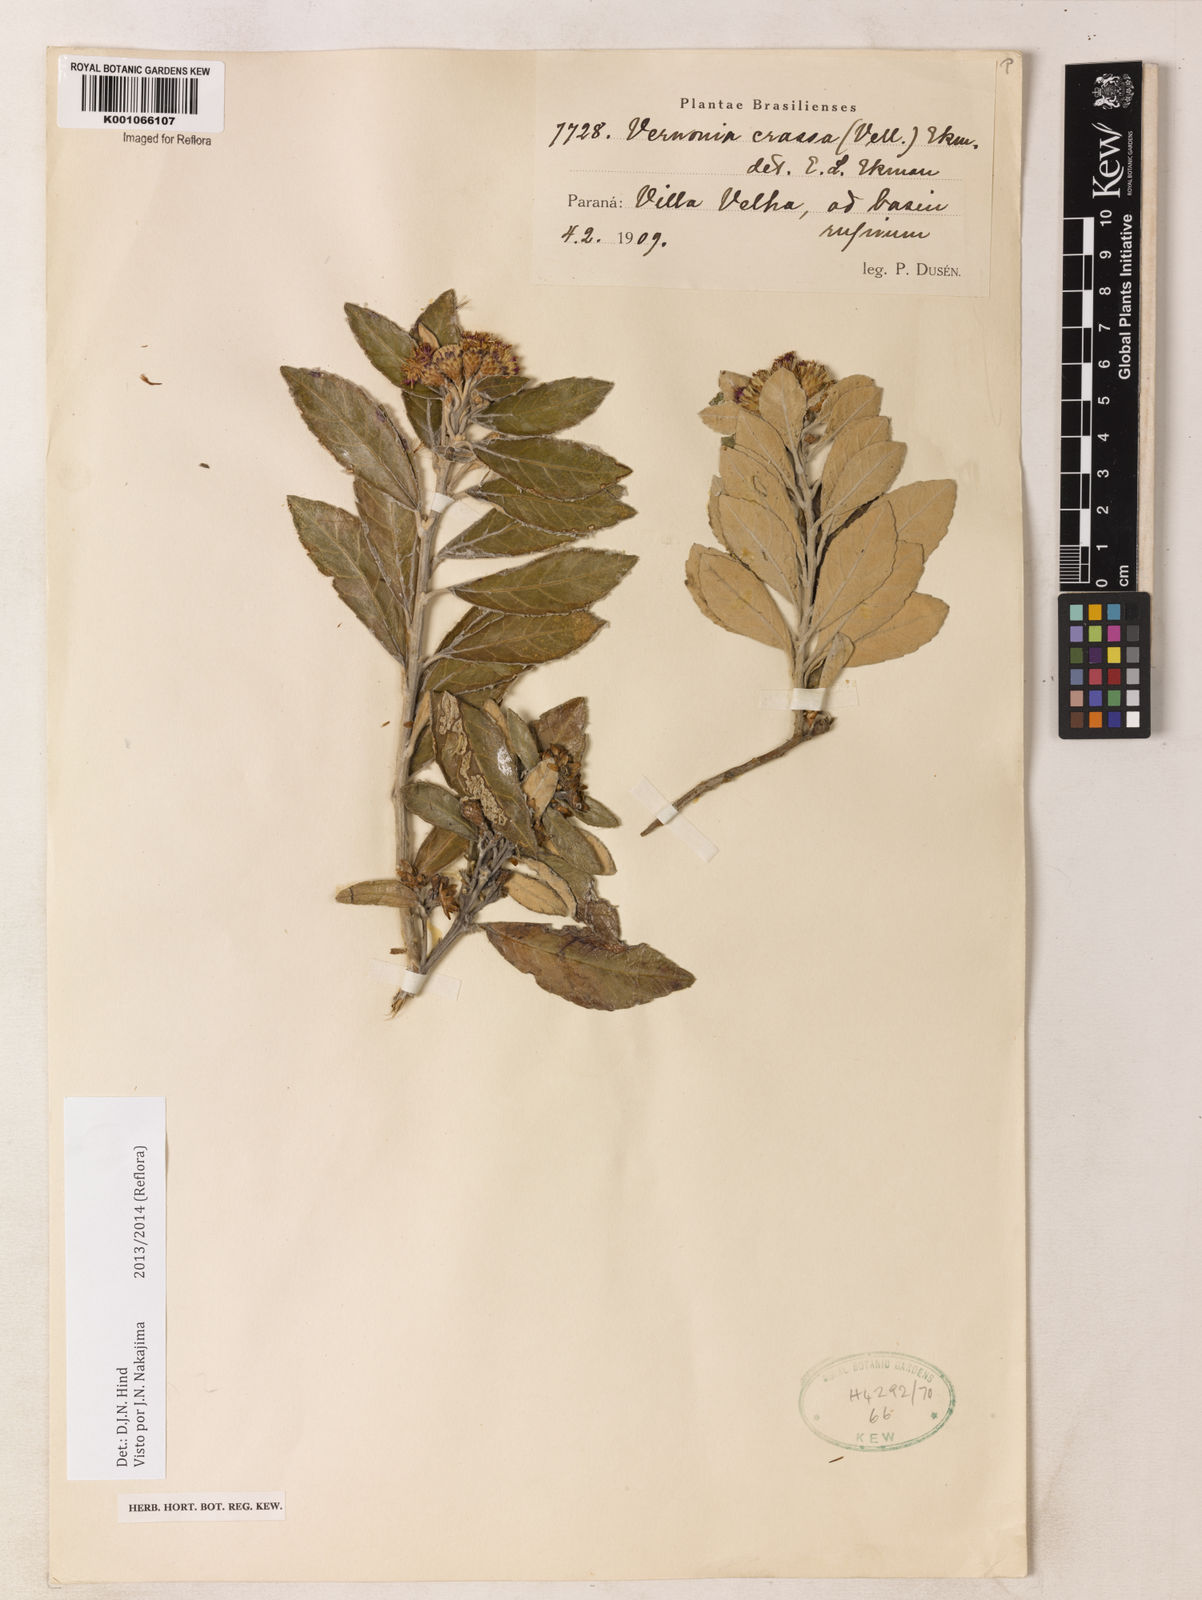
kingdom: Plantae
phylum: Tracheophyta
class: Magnoliopsida
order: Asterales
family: Asteraceae
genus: Vernonanthura
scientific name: Vernonanthura crassa
